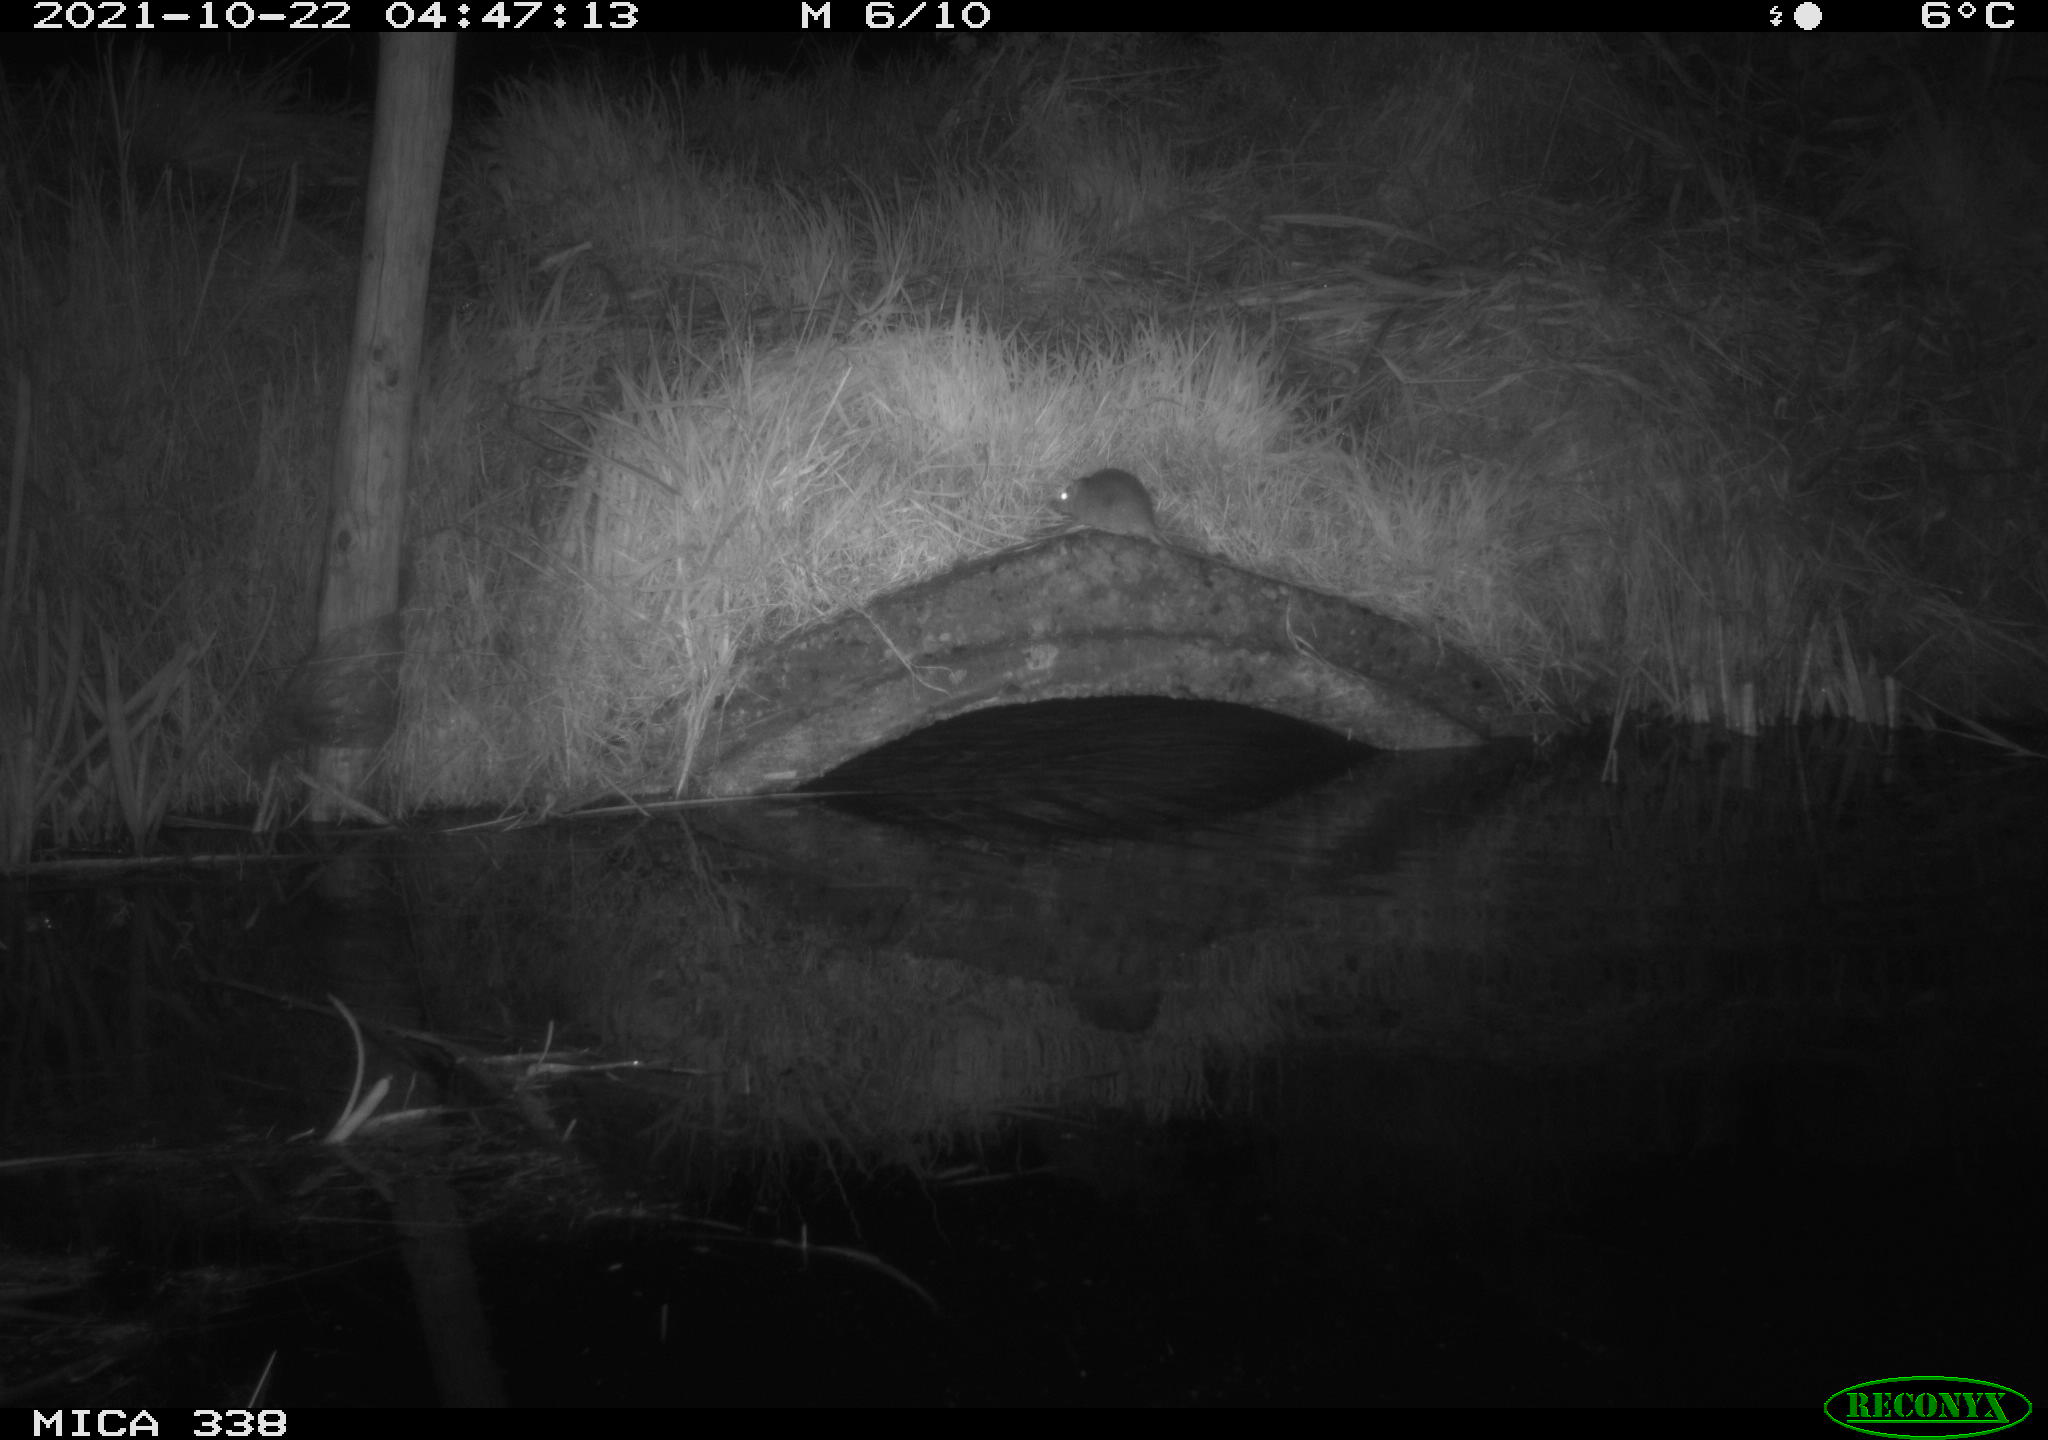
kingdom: Animalia
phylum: Chordata
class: Mammalia
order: Rodentia
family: Muridae
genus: Rattus
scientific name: Rattus norvegicus
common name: Brown rat
